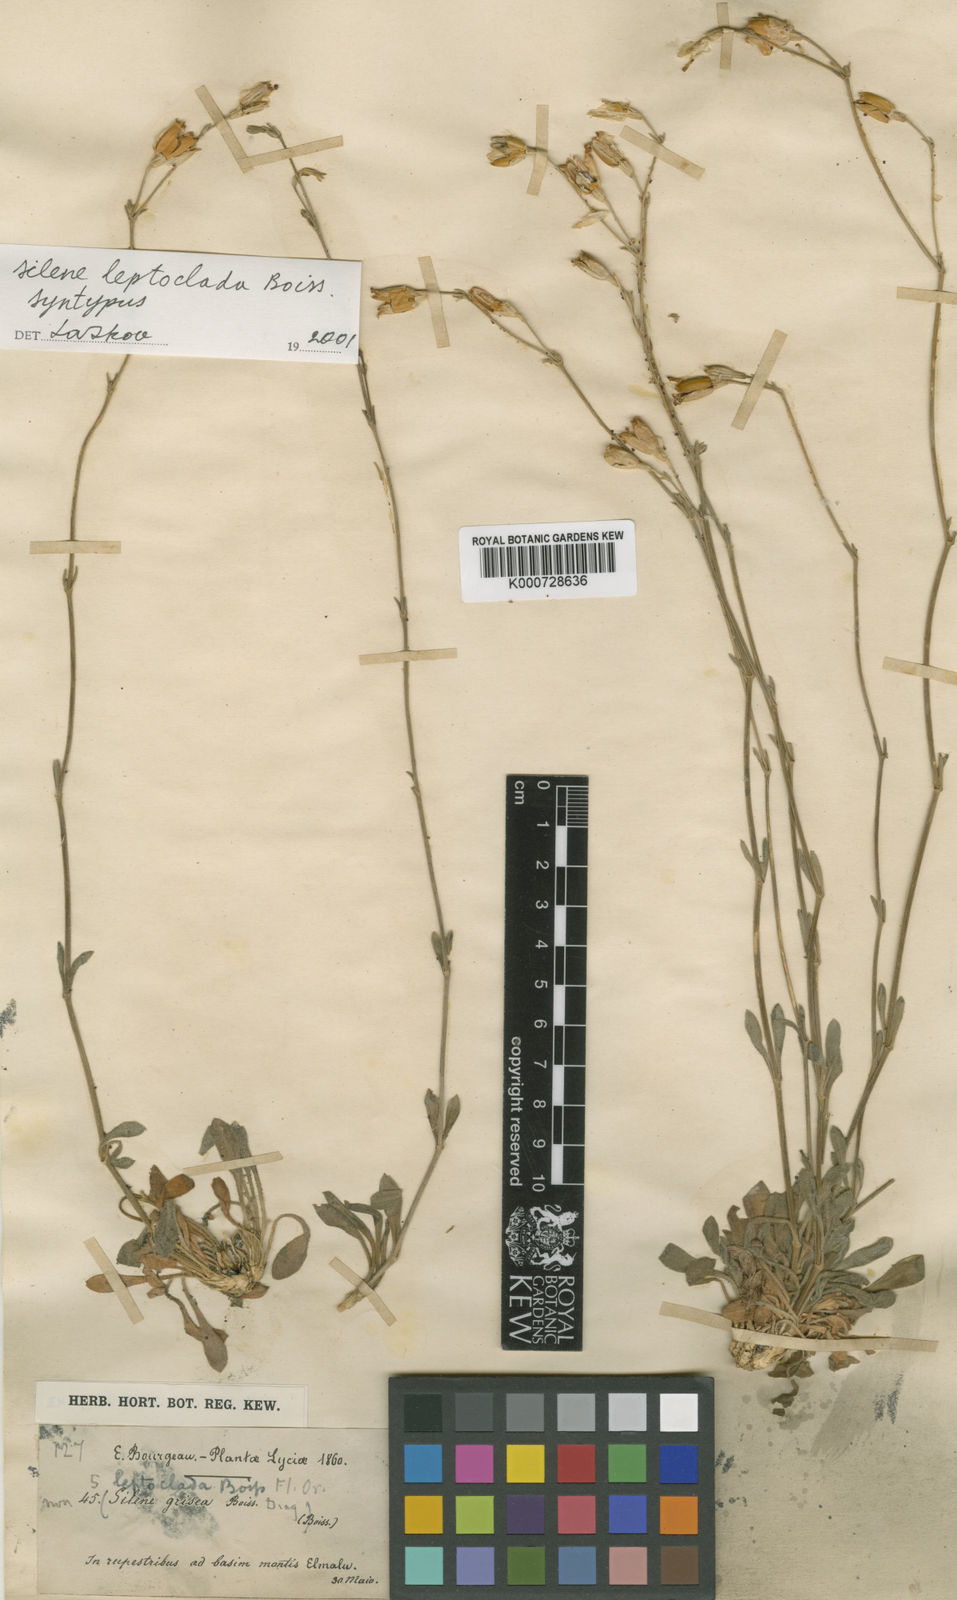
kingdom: Plantae
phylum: Tracheophyta
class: Magnoliopsida
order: Caryophyllales
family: Caryophyllaceae
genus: Silene
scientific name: Silene leptoclada
